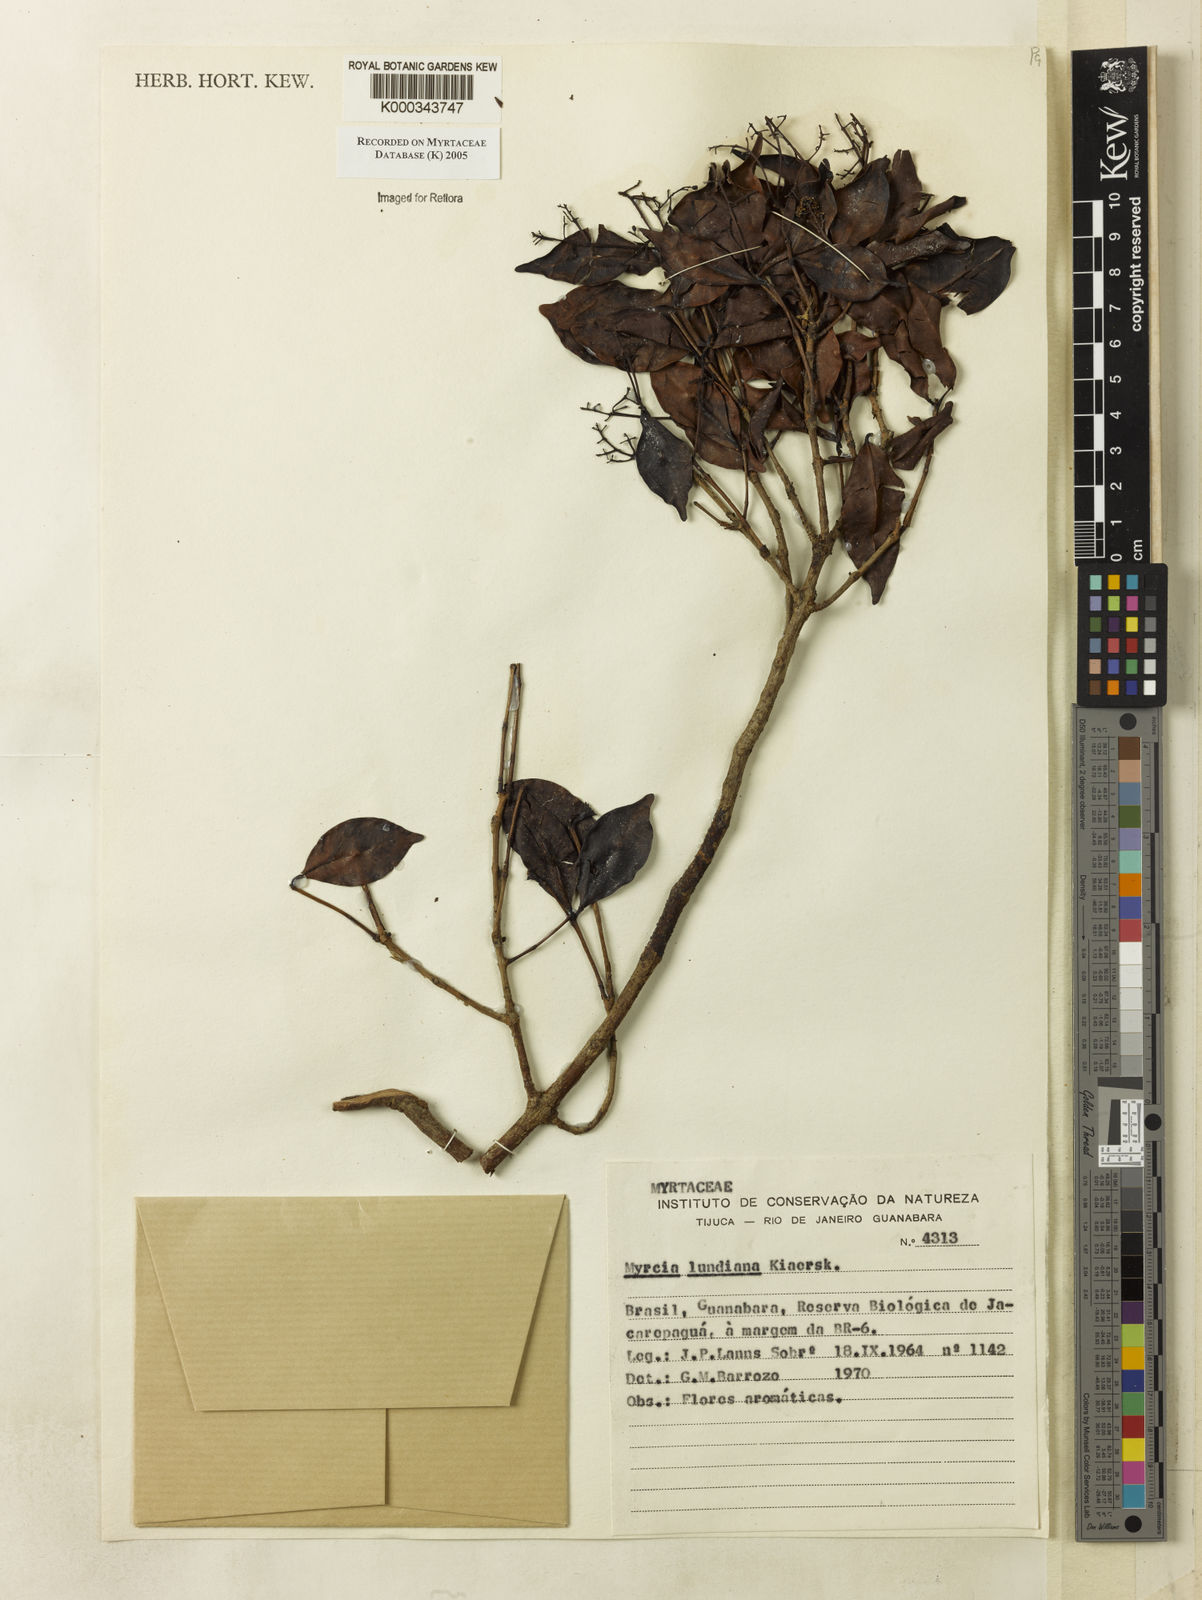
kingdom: Plantae
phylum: Tracheophyta
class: Magnoliopsida
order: Myrtales
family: Myrtaceae
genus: Myrcia
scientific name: Myrcia lundiana
